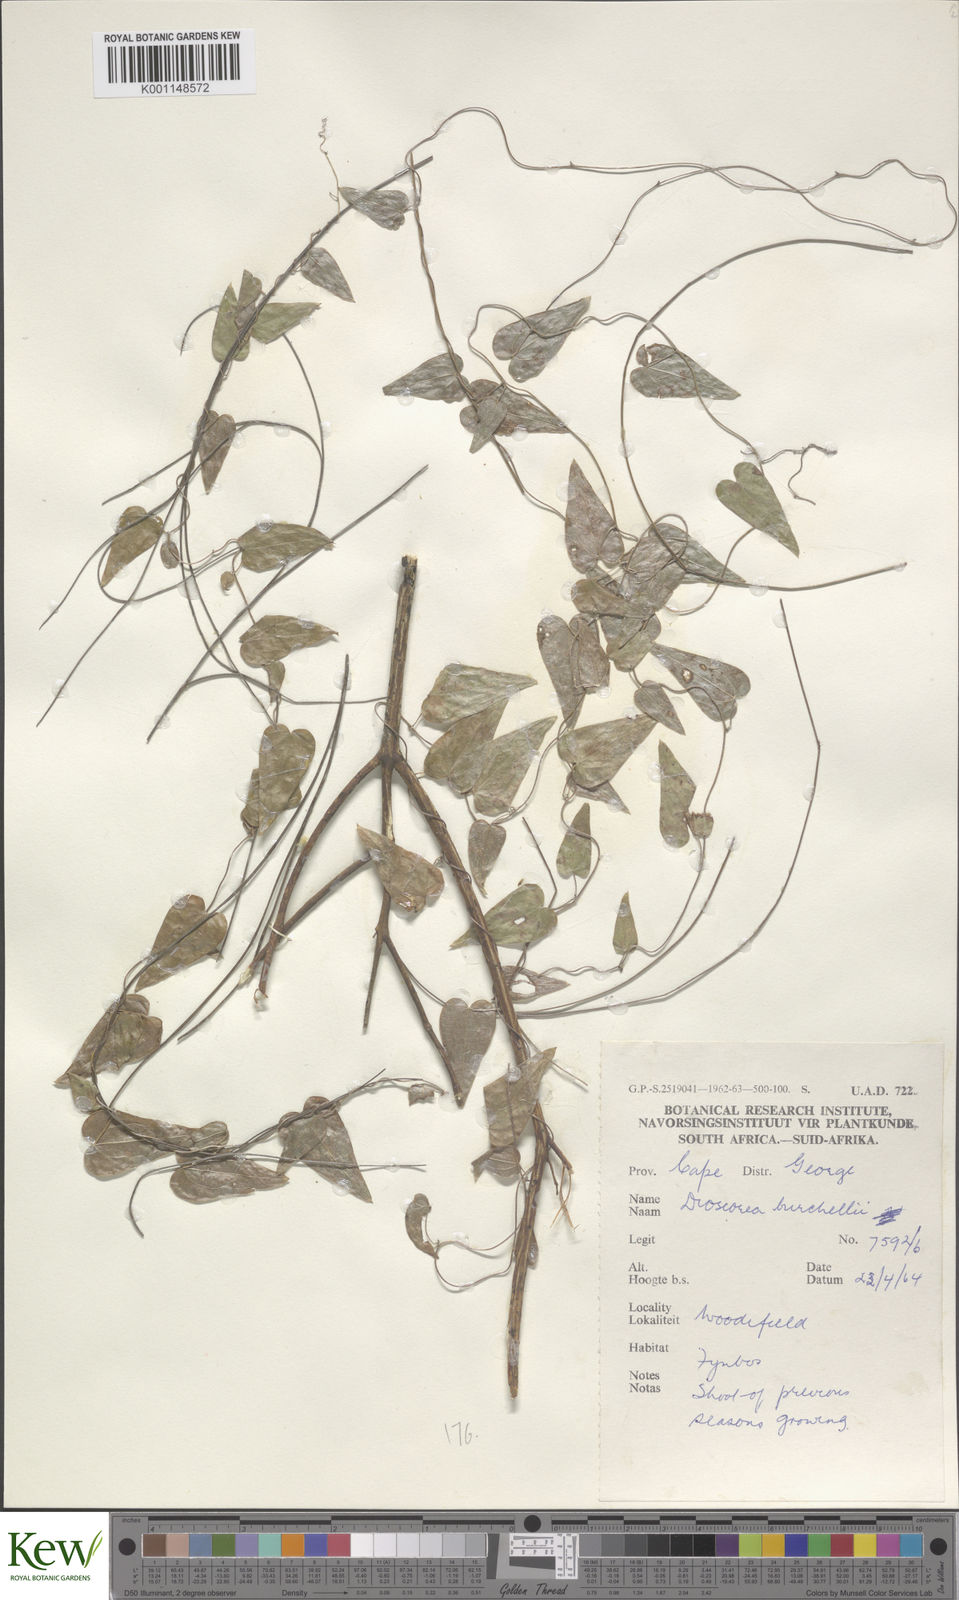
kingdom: Plantae
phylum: Tracheophyta
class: Liliopsida
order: Dioscoreales
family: Dioscoreaceae
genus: Dioscorea
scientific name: Dioscorea burchellii
